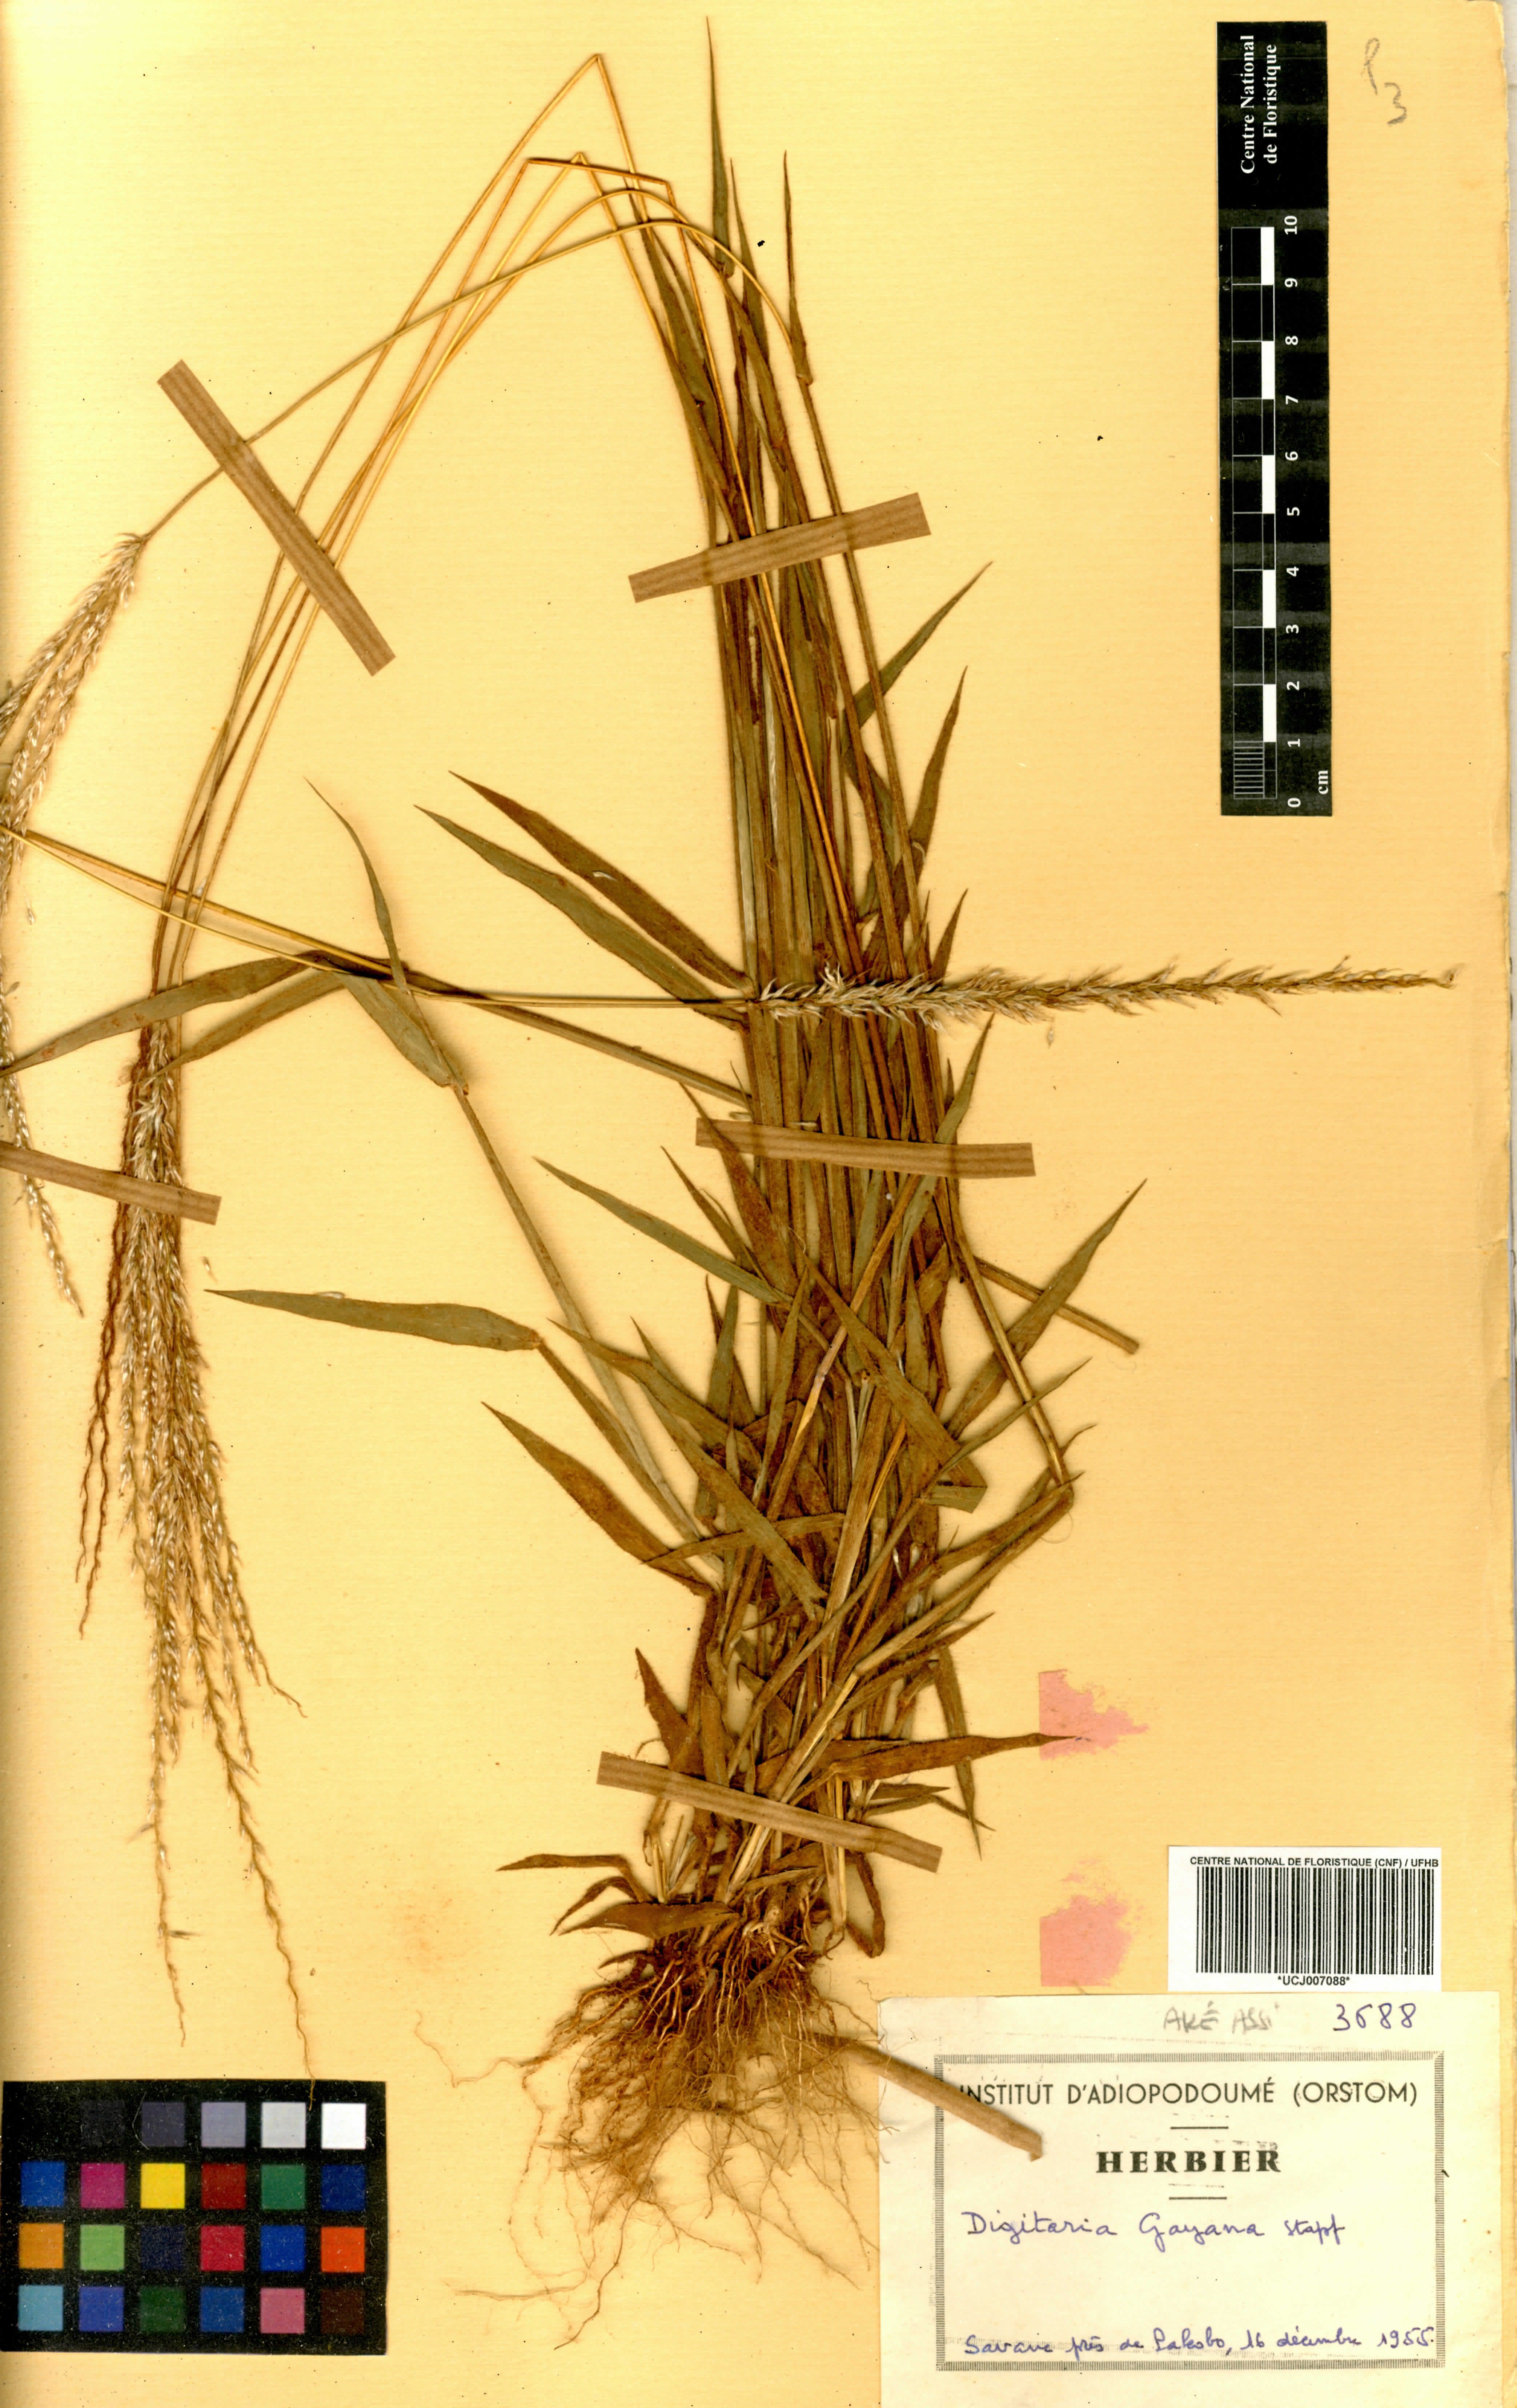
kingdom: Plantae
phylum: Tracheophyta
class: Liliopsida
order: Poales
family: Poaceae
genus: Digitaria
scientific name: Digitaria gayana
